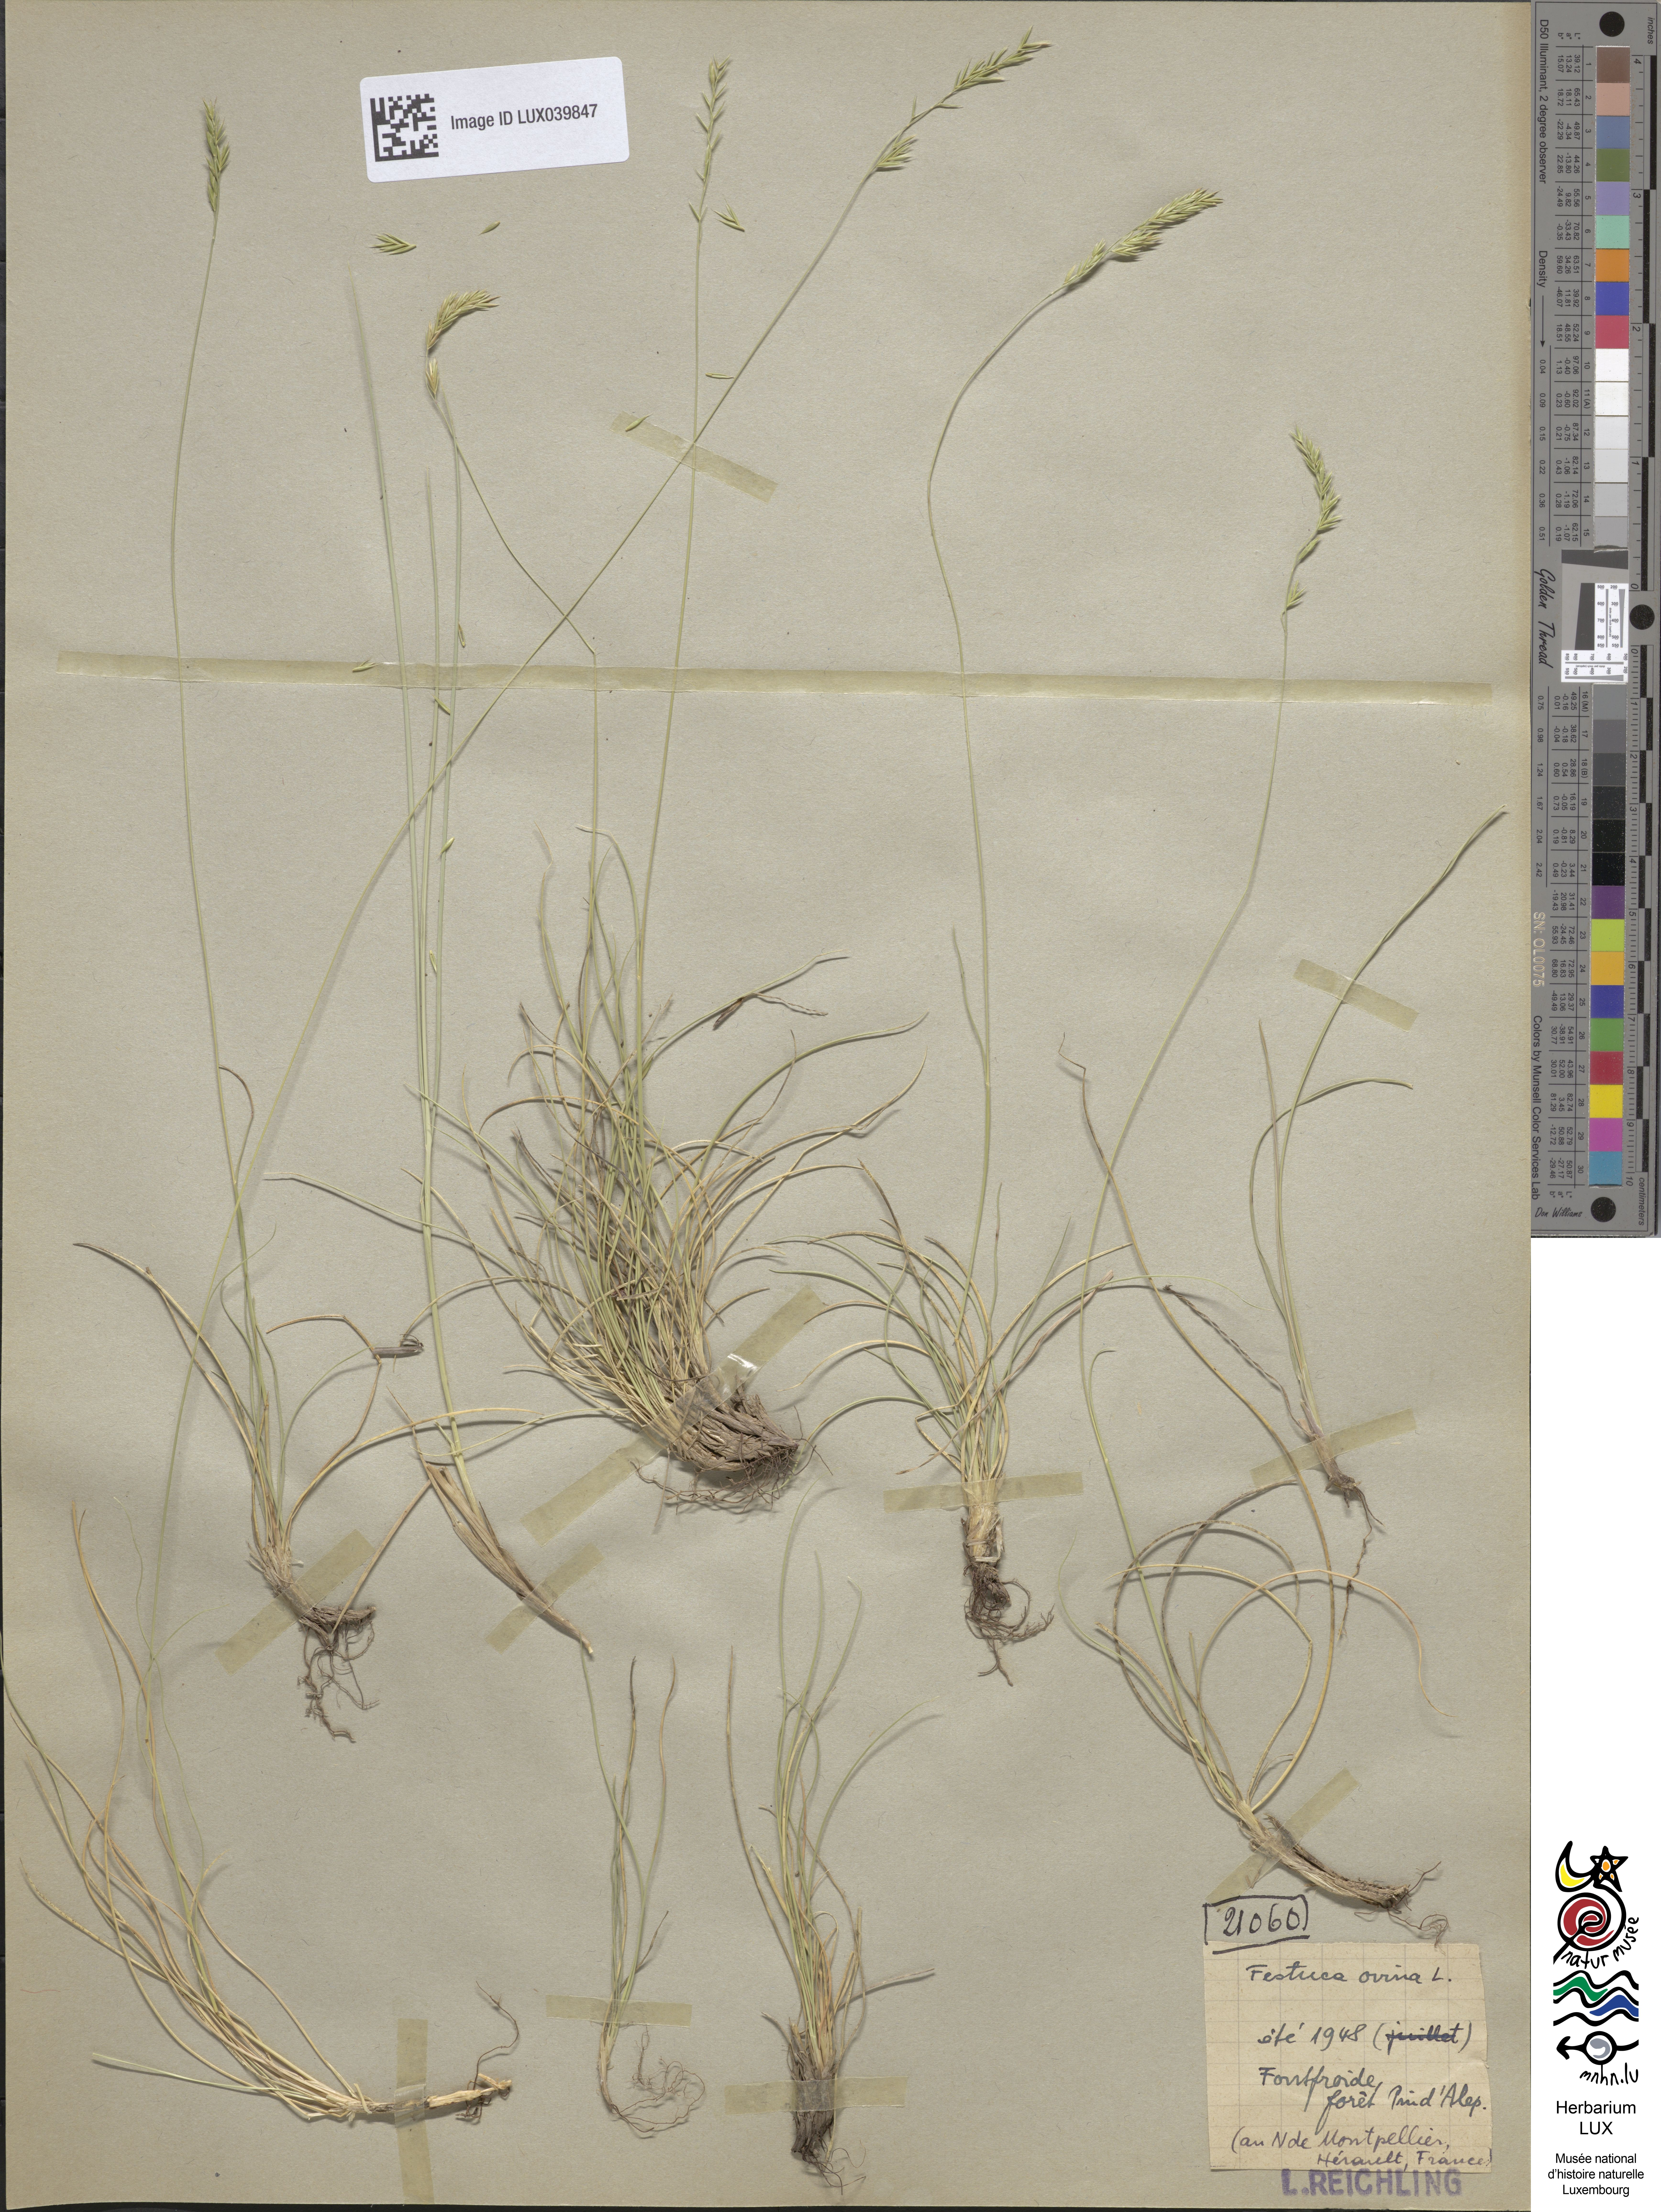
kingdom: Plantae
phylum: Tracheophyta
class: Liliopsida
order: Poales
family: Poaceae
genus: Festuca
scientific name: Festuca ovina
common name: Sheep fescue
